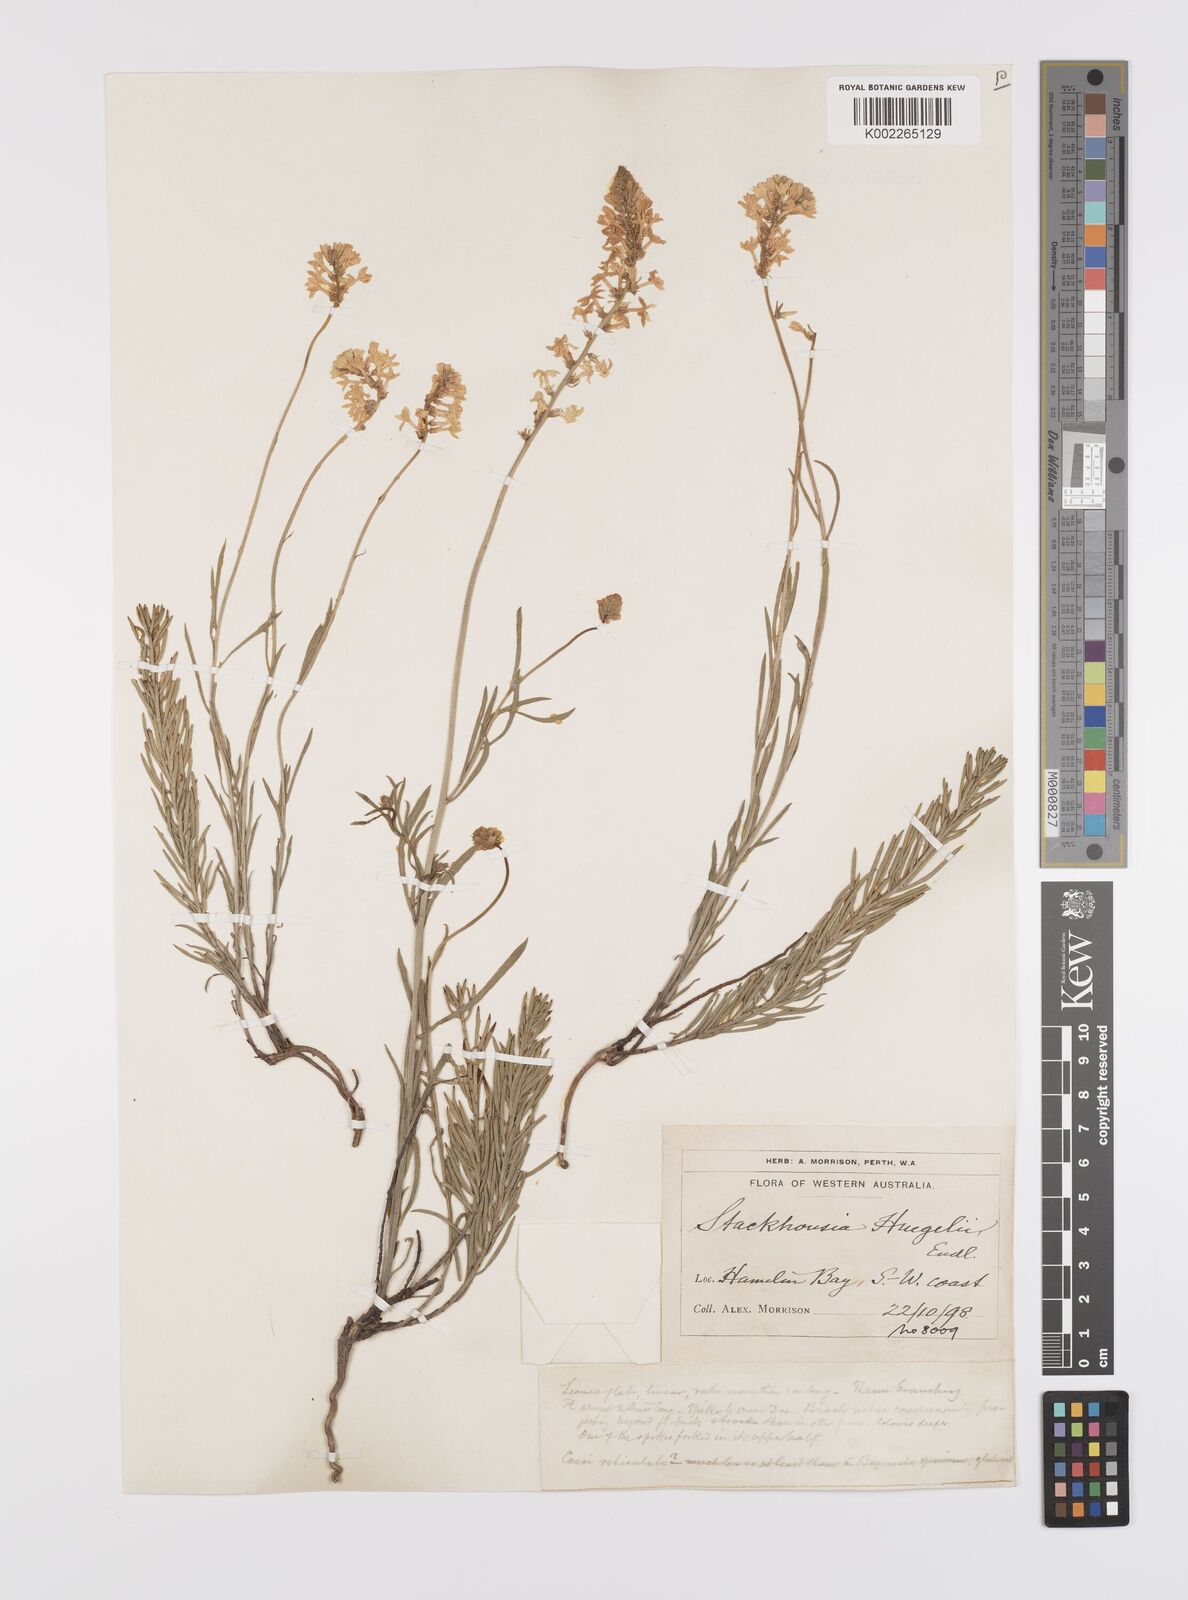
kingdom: Plantae
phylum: Tracheophyta
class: Magnoliopsida
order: Celastrales
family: Celastraceae
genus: Stackhousia
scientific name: Stackhousia monogyna
